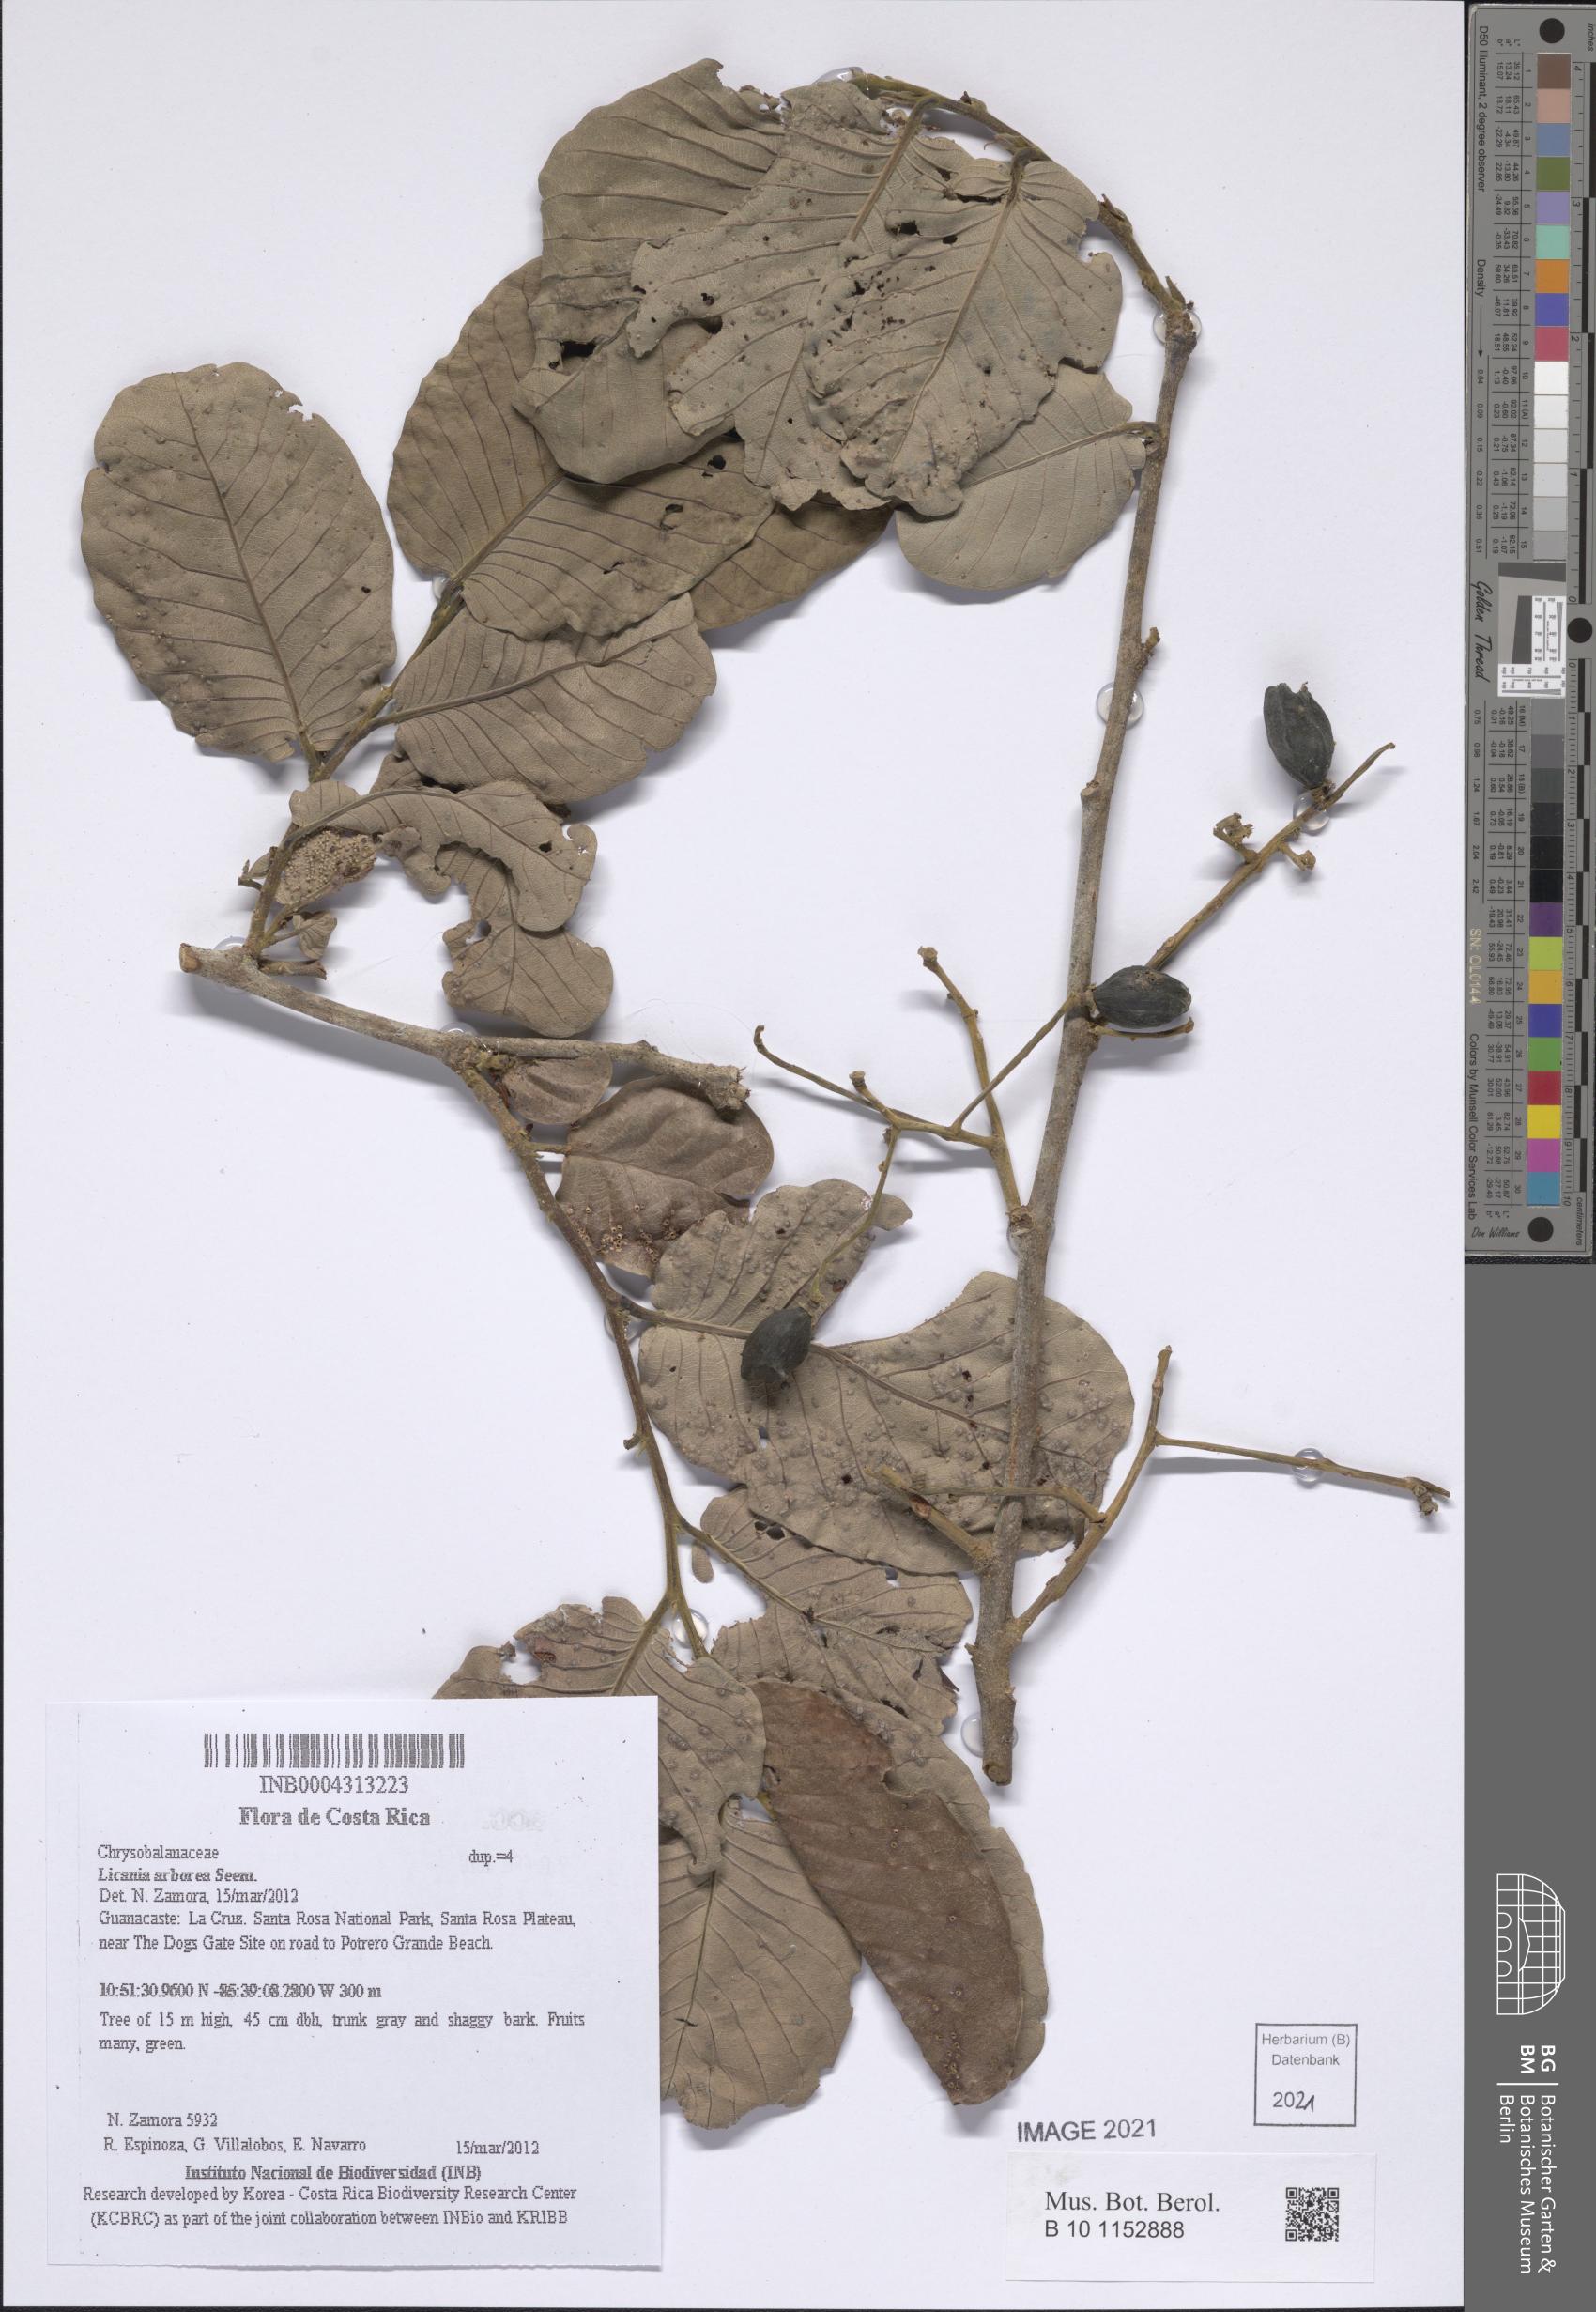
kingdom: Plantae
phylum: Tracheophyta
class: Magnoliopsida
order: Malpighiales
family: Chrysobalanaceae
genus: Microdesmia
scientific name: Microdesmia arborea
